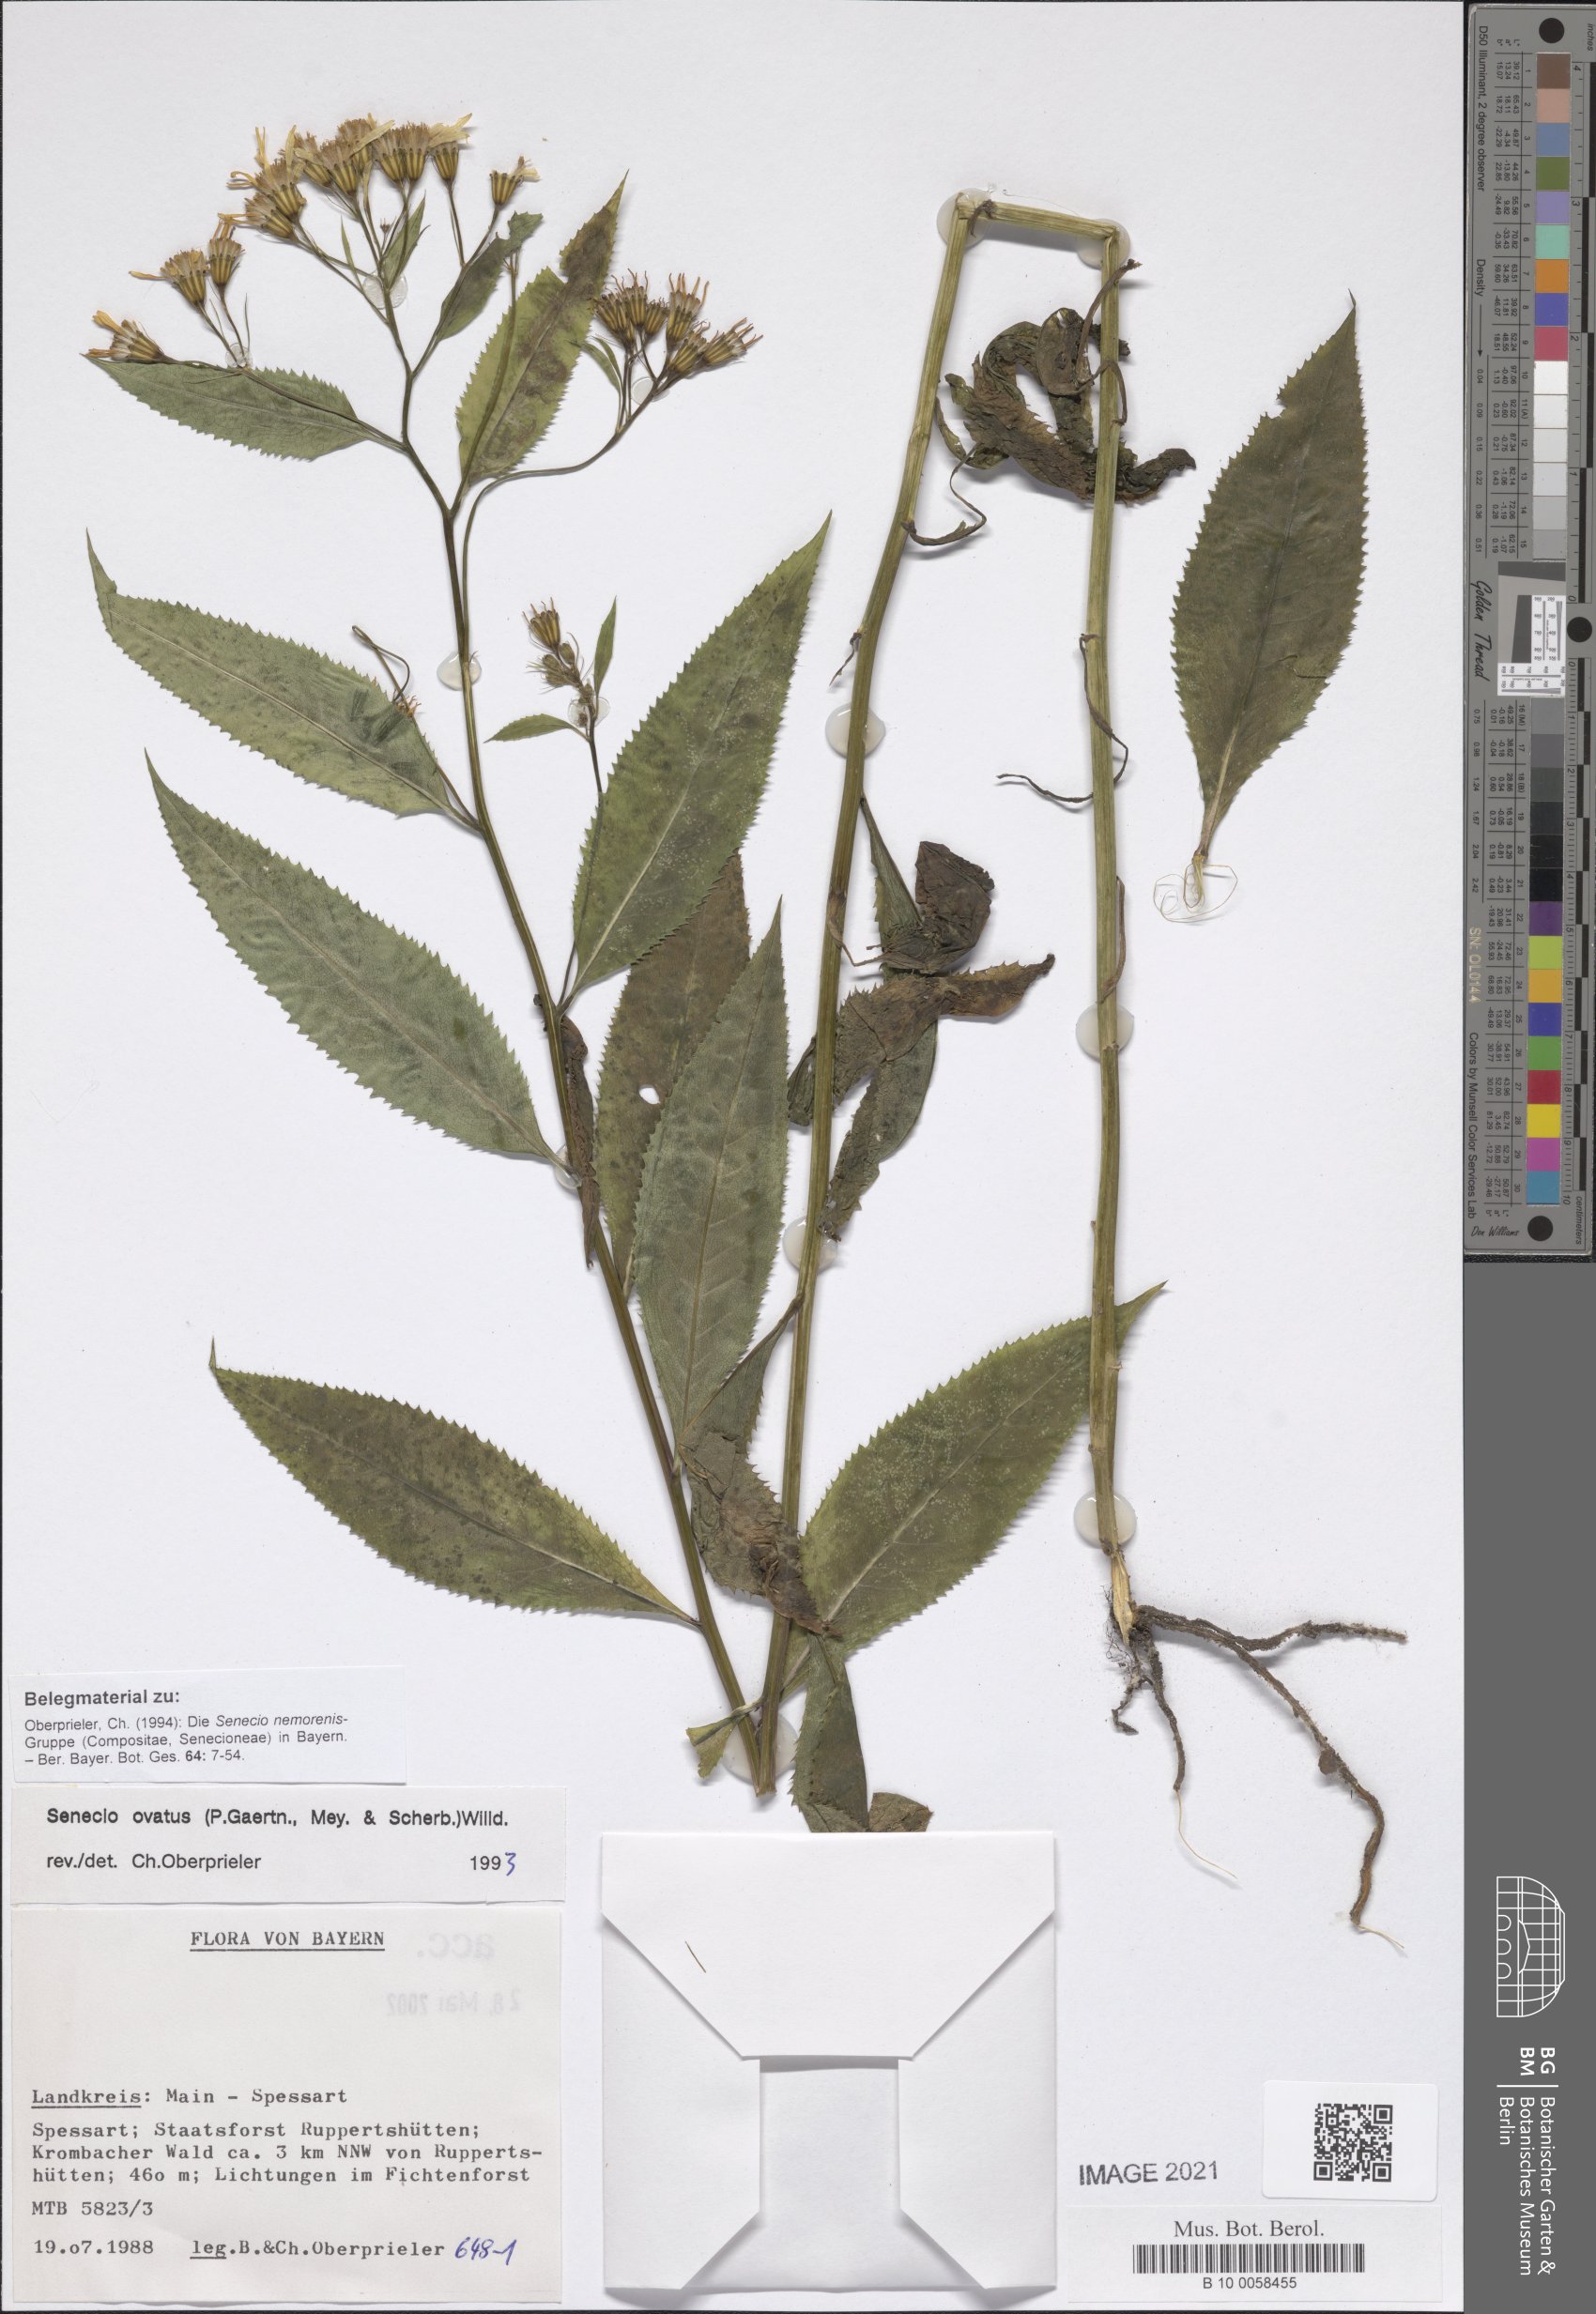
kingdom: Plantae
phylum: Tracheophyta
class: Magnoliopsida
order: Asterales
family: Asteraceae
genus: Senecio
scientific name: Senecio ovatus
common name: Wood ragwort
